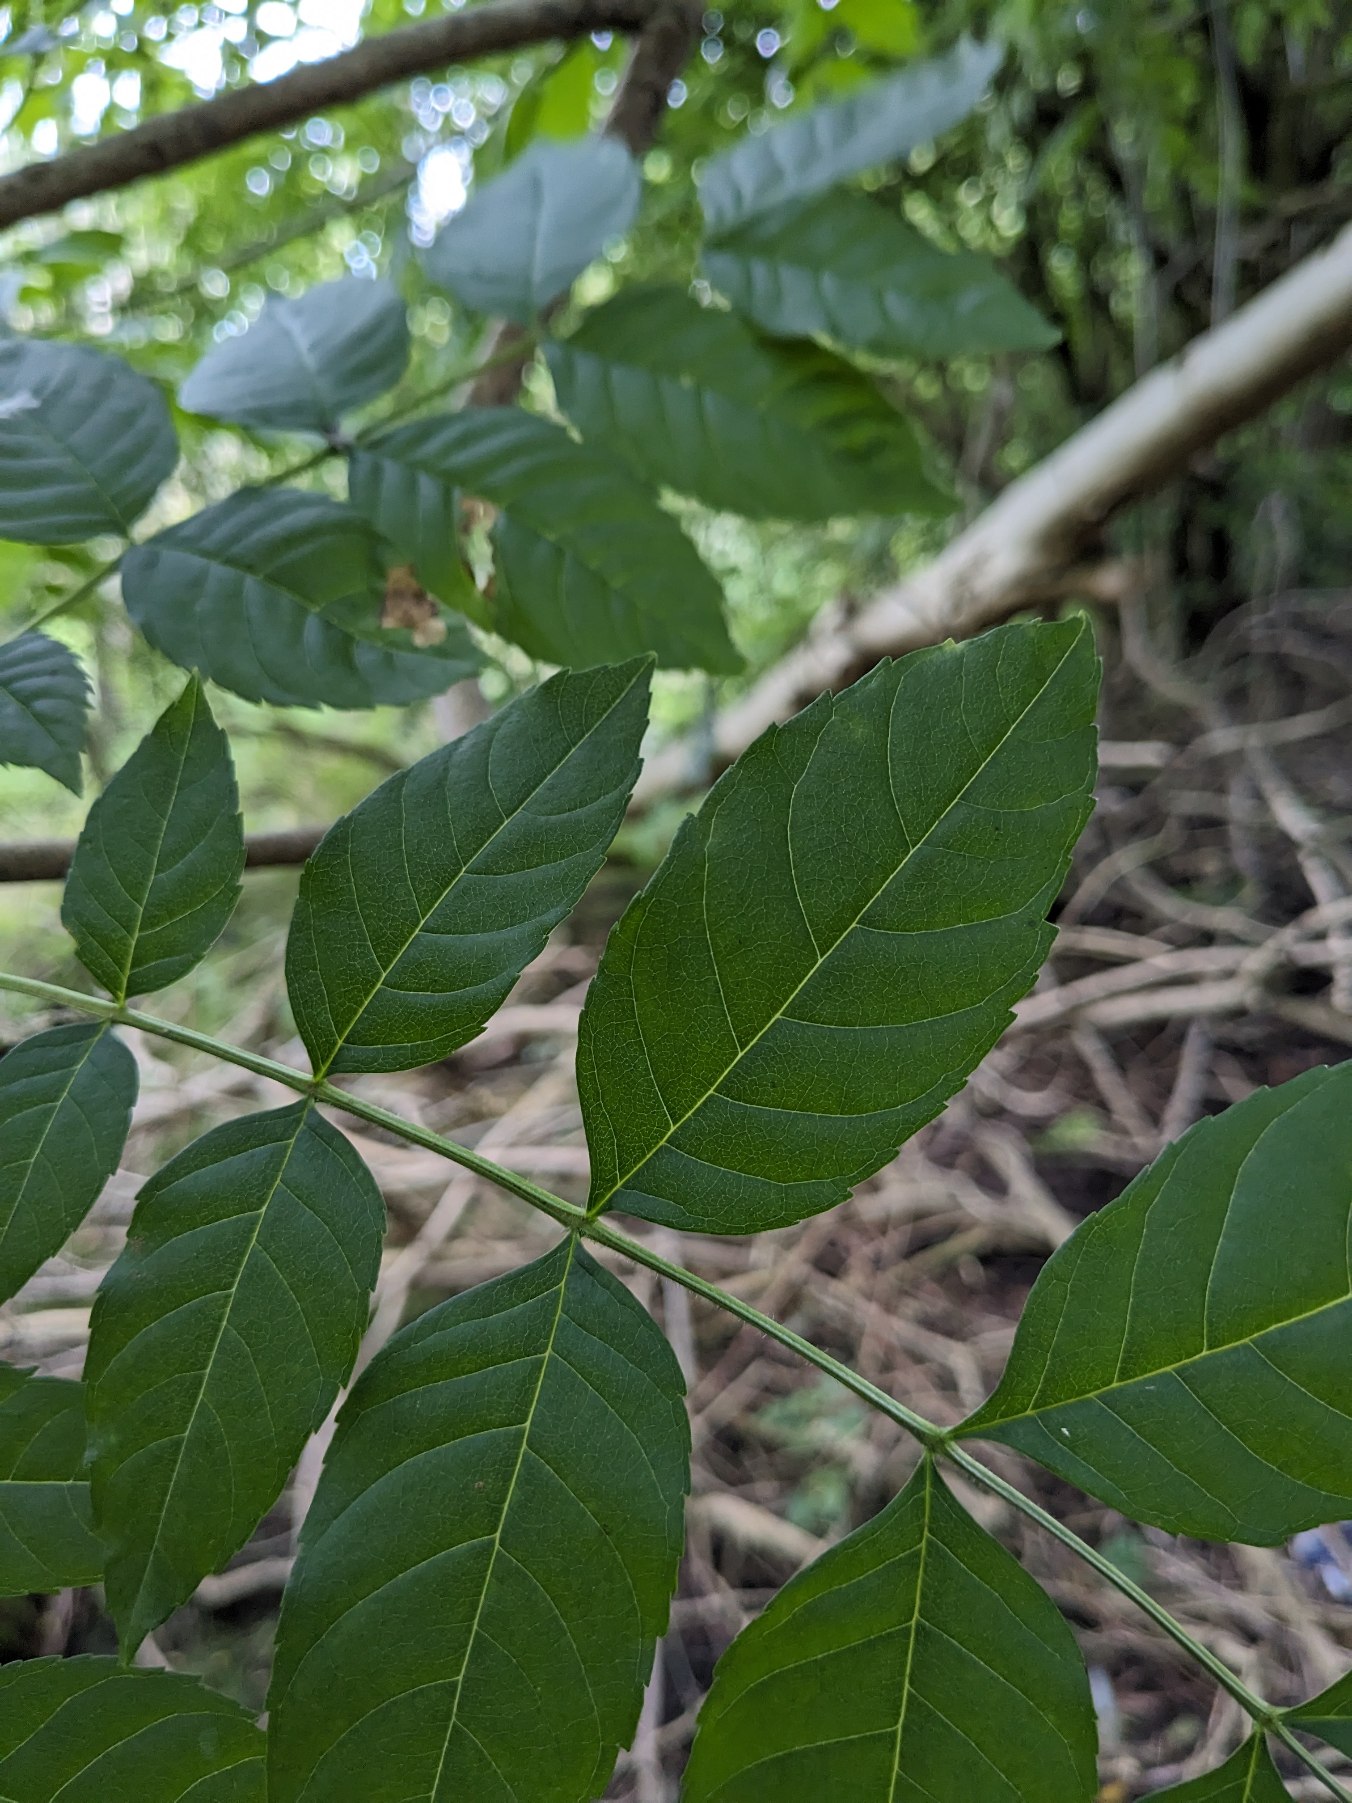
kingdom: Plantae
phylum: Tracheophyta
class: Magnoliopsida
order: Lamiales
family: Oleaceae
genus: Fraxinus
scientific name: Fraxinus excelsior
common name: Ask
